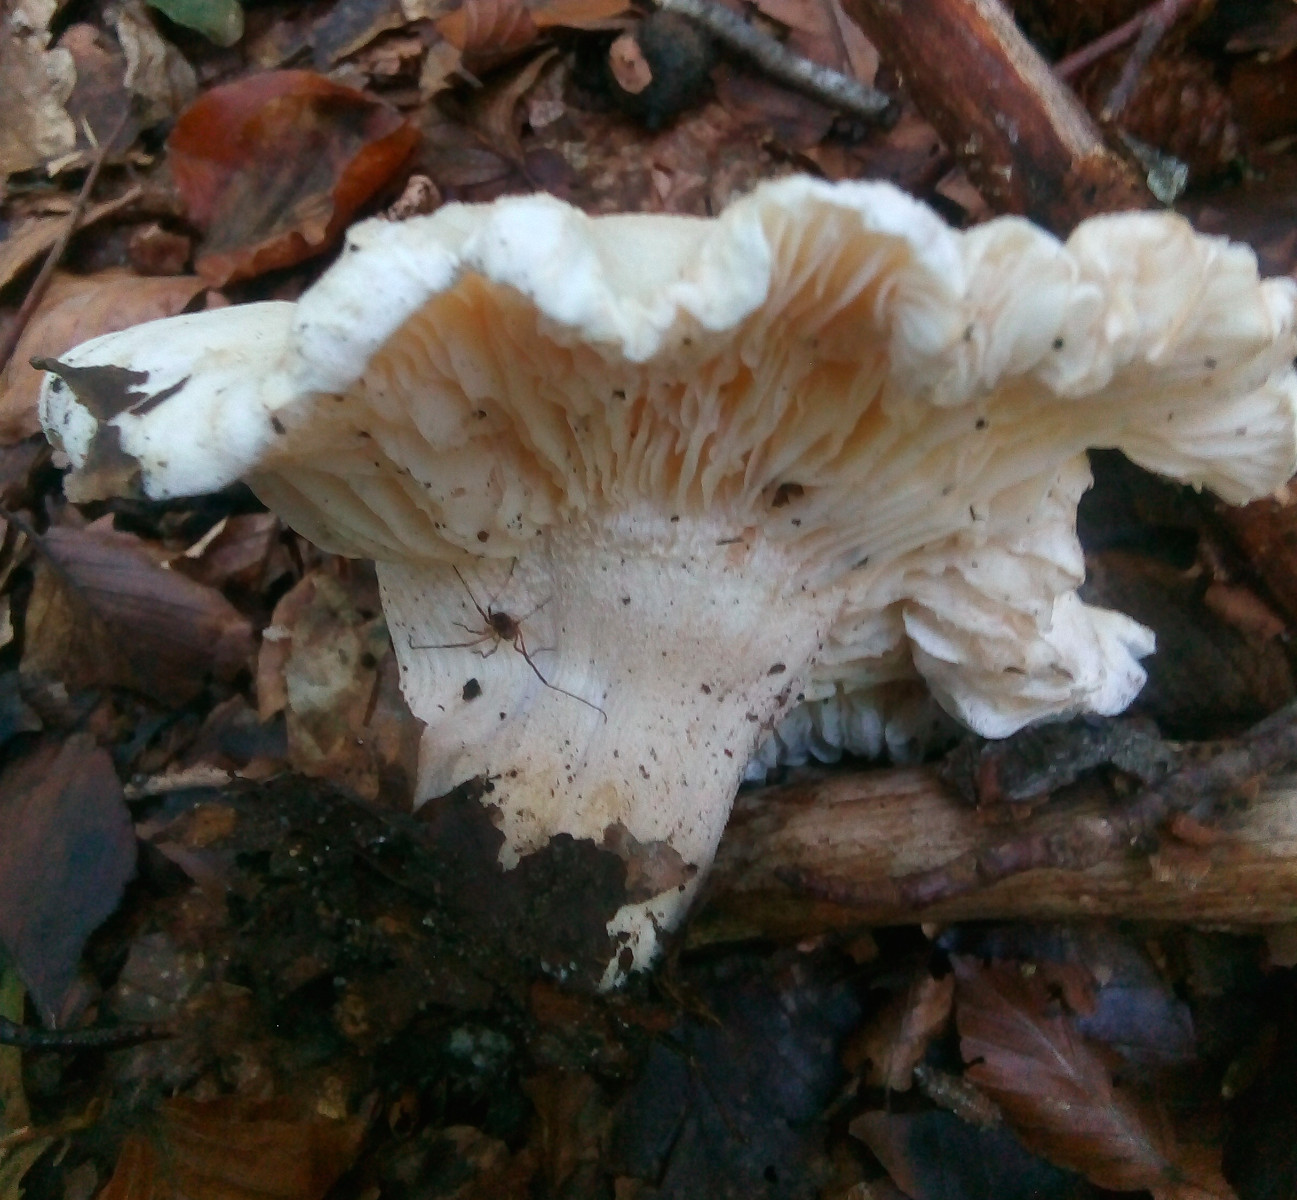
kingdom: Fungi
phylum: Basidiomycota
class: Agaricomycetes
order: Agaricales
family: Hygrophoraceae
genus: Hygrophorus
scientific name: Hygrophorus penarius
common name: spiselig sneglehat
